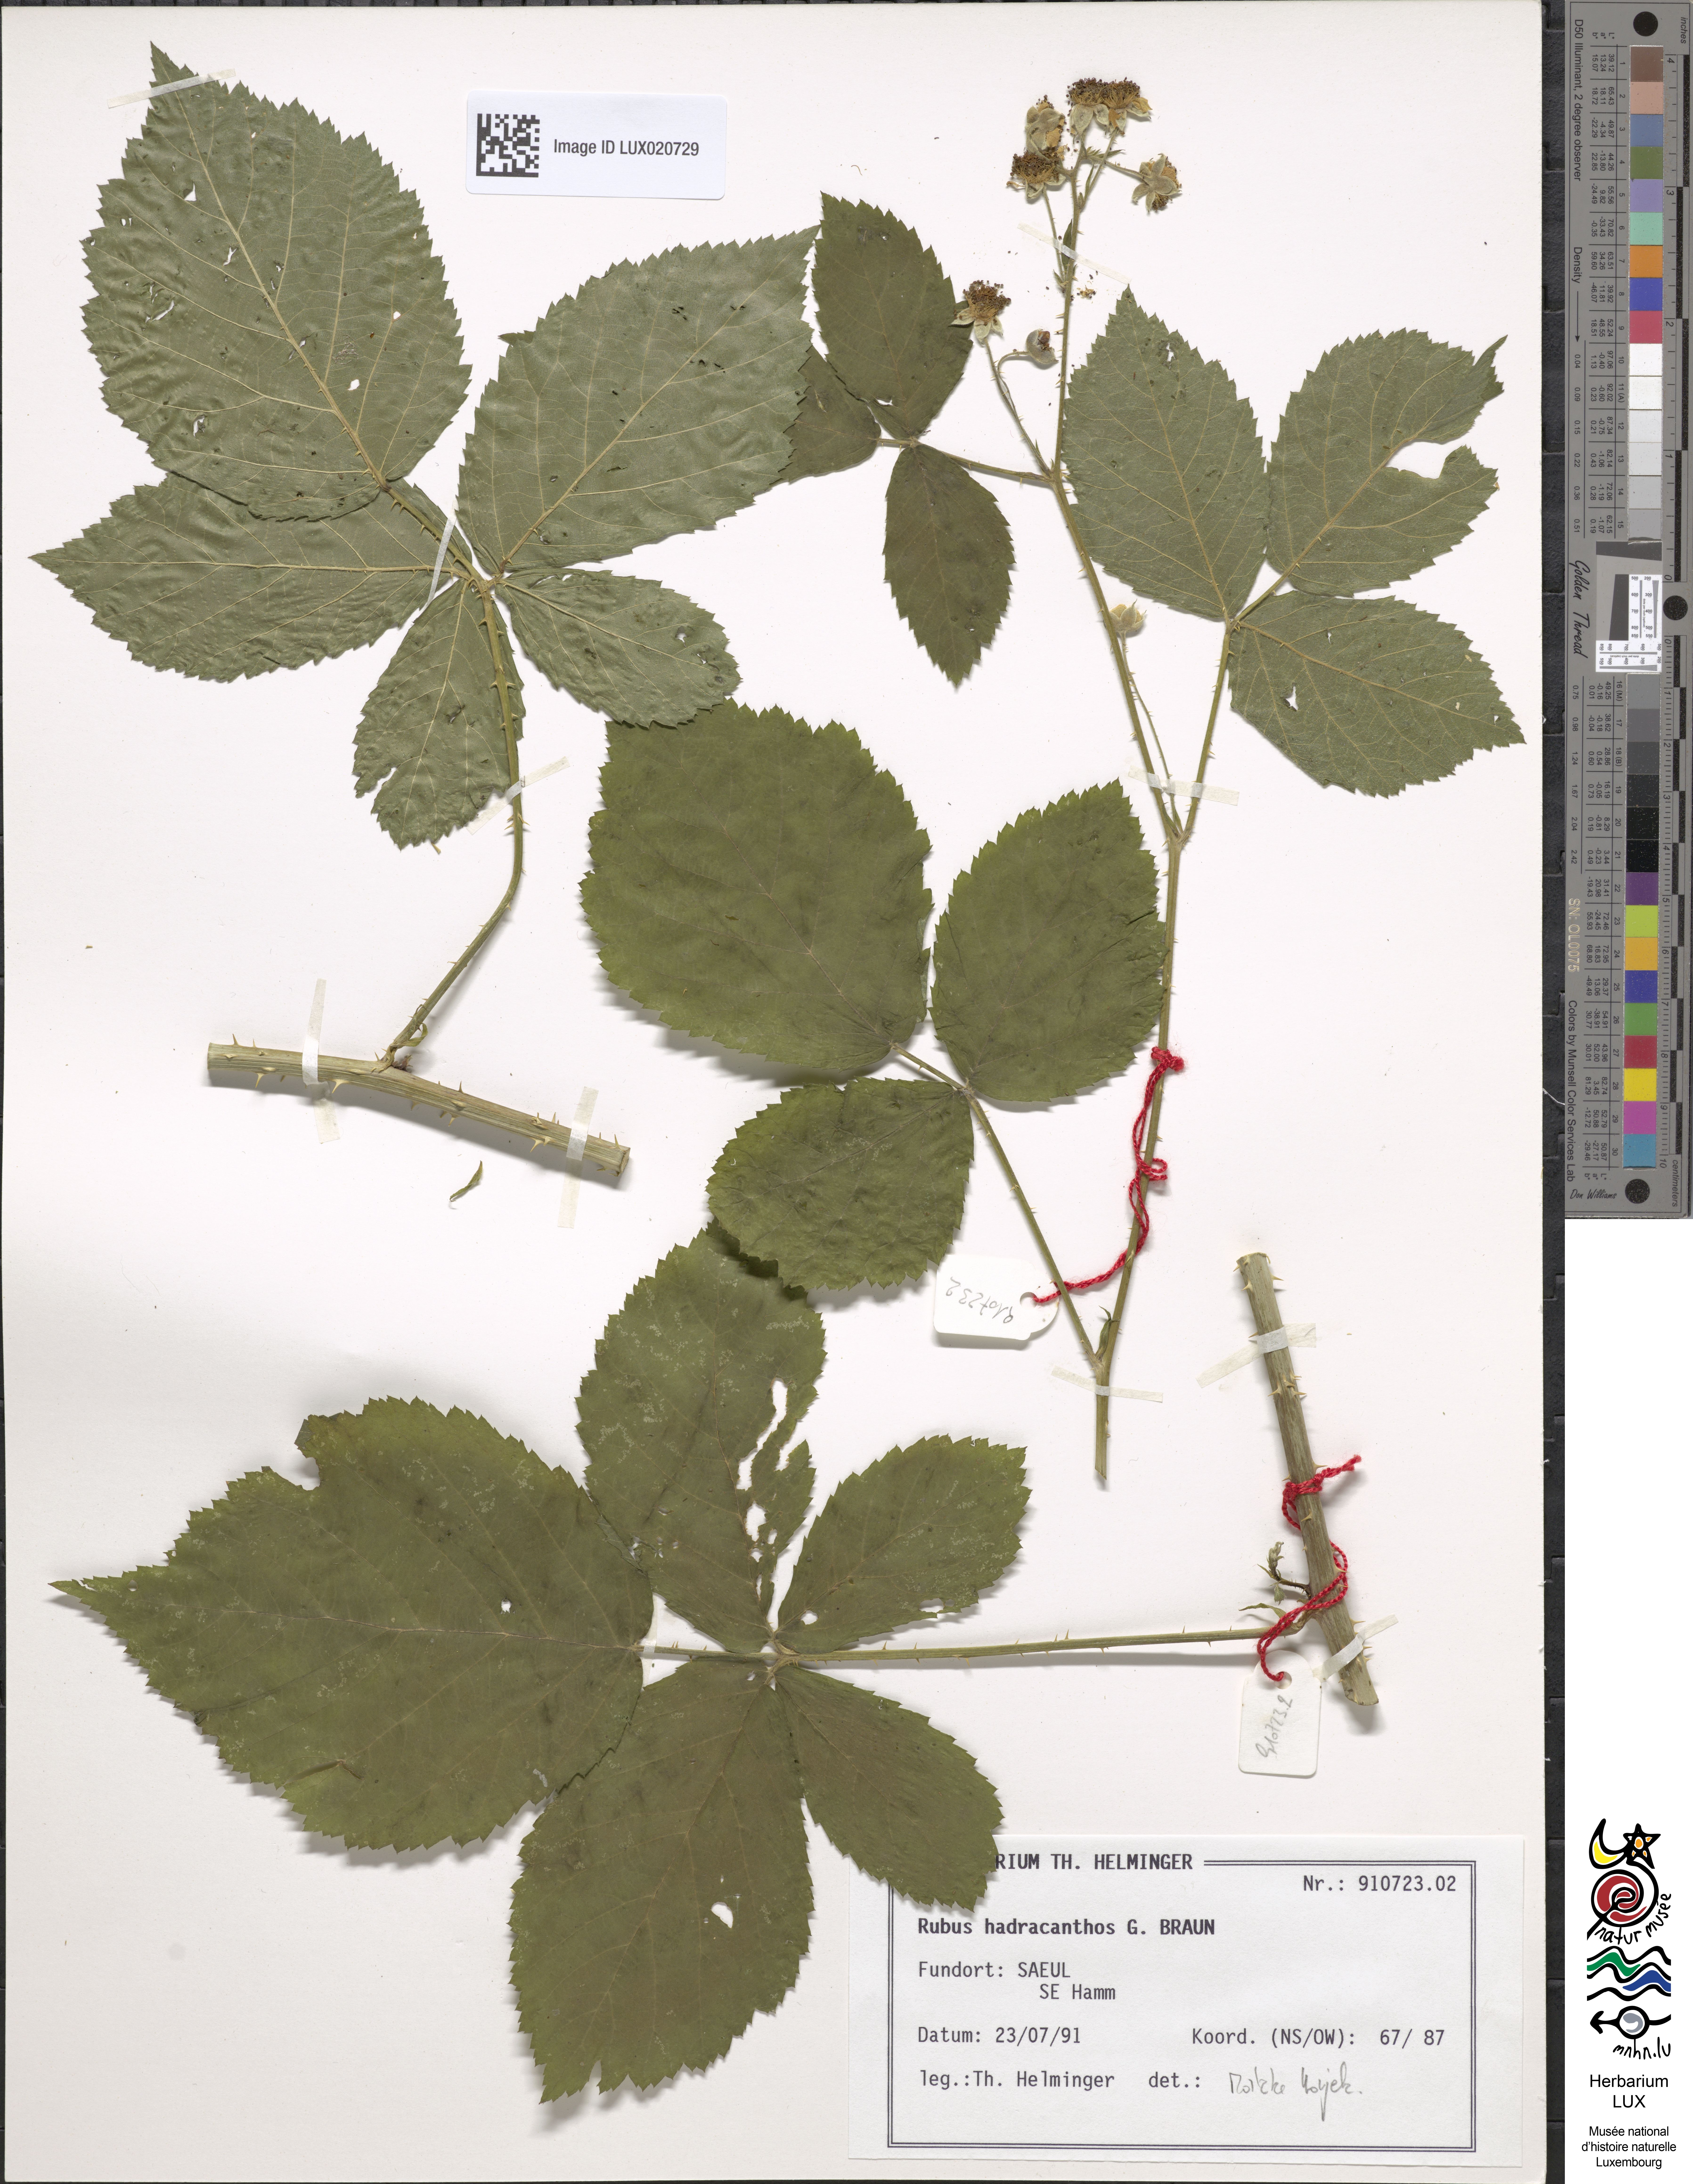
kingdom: Plantae
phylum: Tracheophyta
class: Magnoliopsida
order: Rosales
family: Rosaceae
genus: Rubus
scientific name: Rubus hadracanthos
